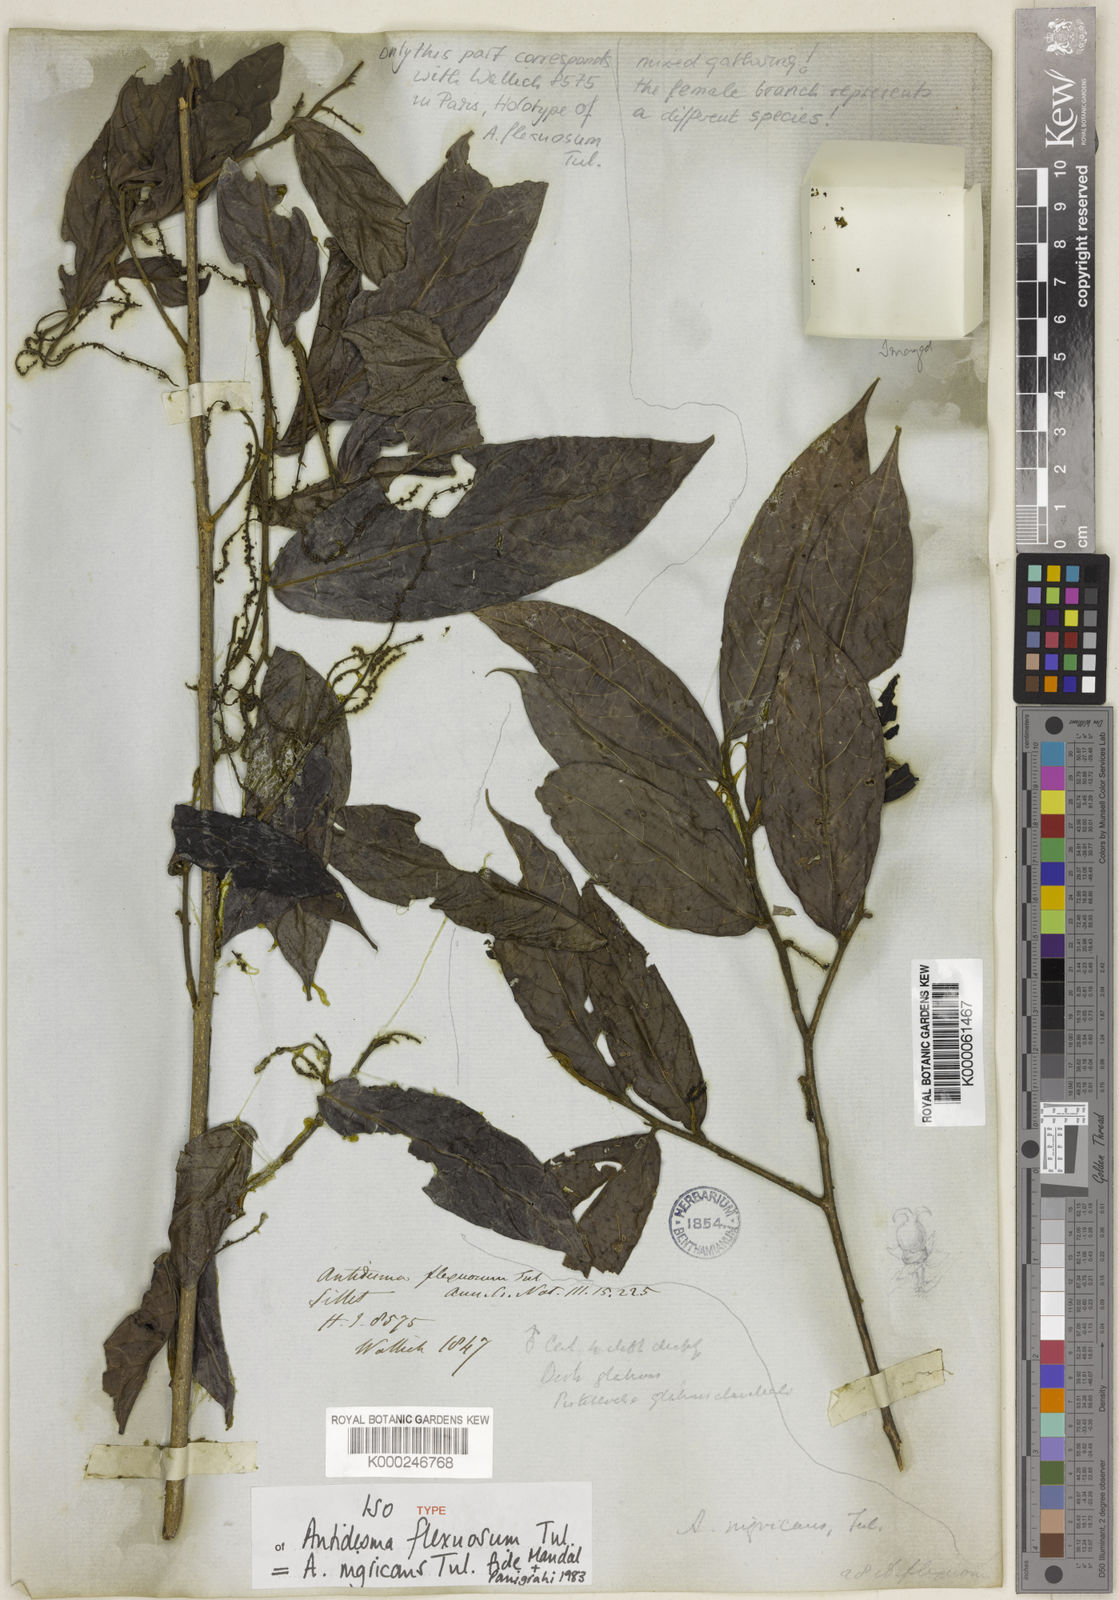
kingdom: Plantae
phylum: Tracheophyta
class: Magnoliopsida
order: Malpighiales
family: Phyllanthaceae
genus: Antidesma
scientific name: Antidesma nigricans
